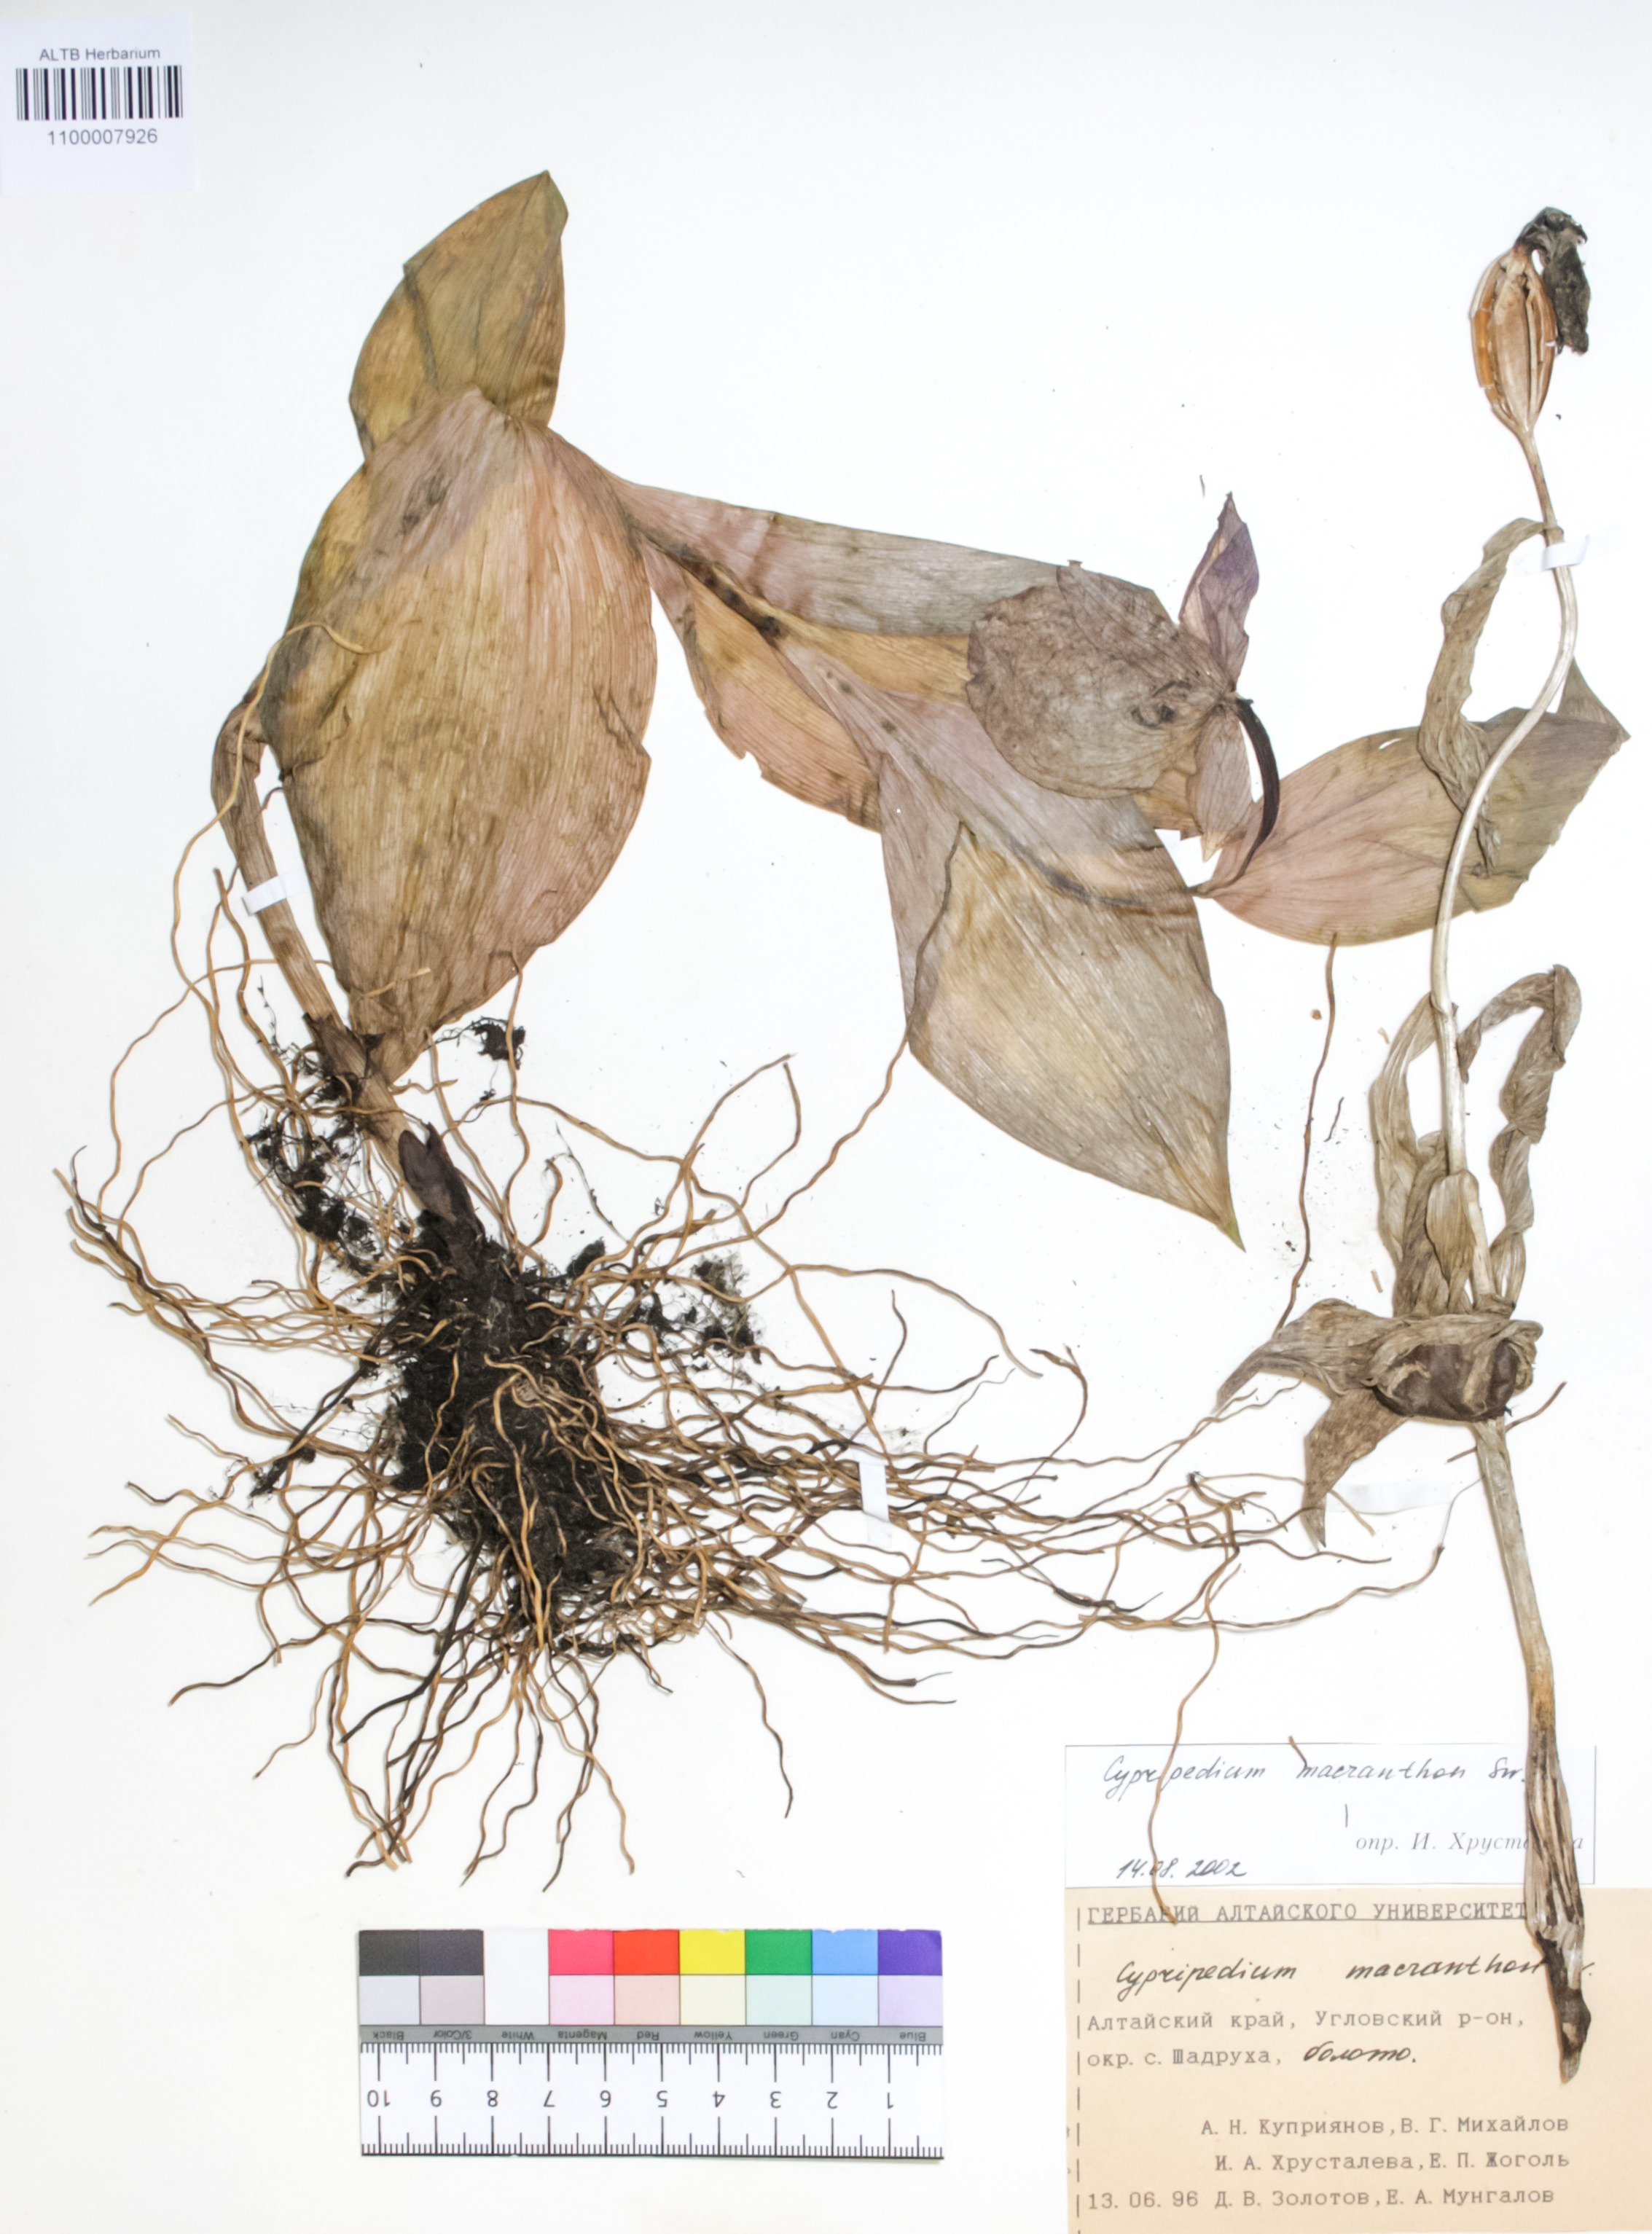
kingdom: Plantae
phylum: Tracheophyta
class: Liliopsida
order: Asparagales
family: Orchidaceae
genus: Cypripedium
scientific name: Cypripedium macranthon
